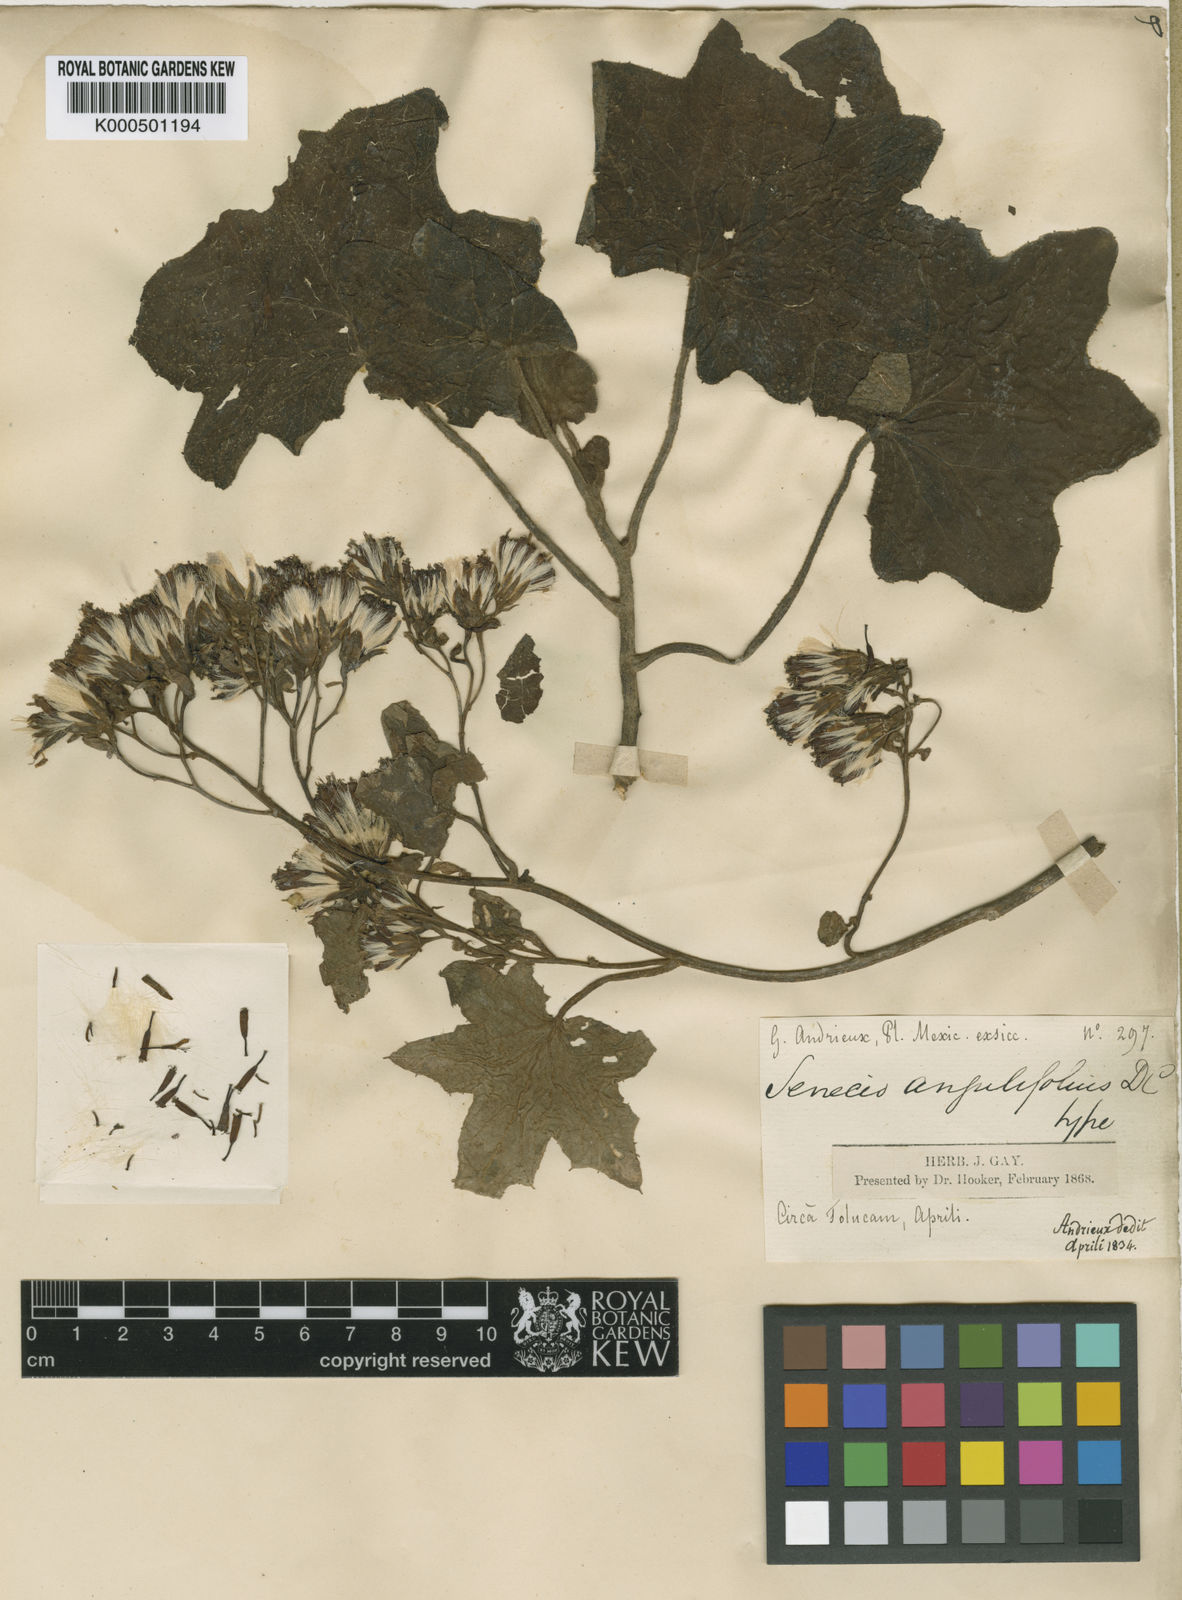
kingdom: Plantae
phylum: Tracheophyta
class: Magnoliopsida
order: Asterales
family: Asteraceae
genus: Roldana
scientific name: Roldana angulifolia
